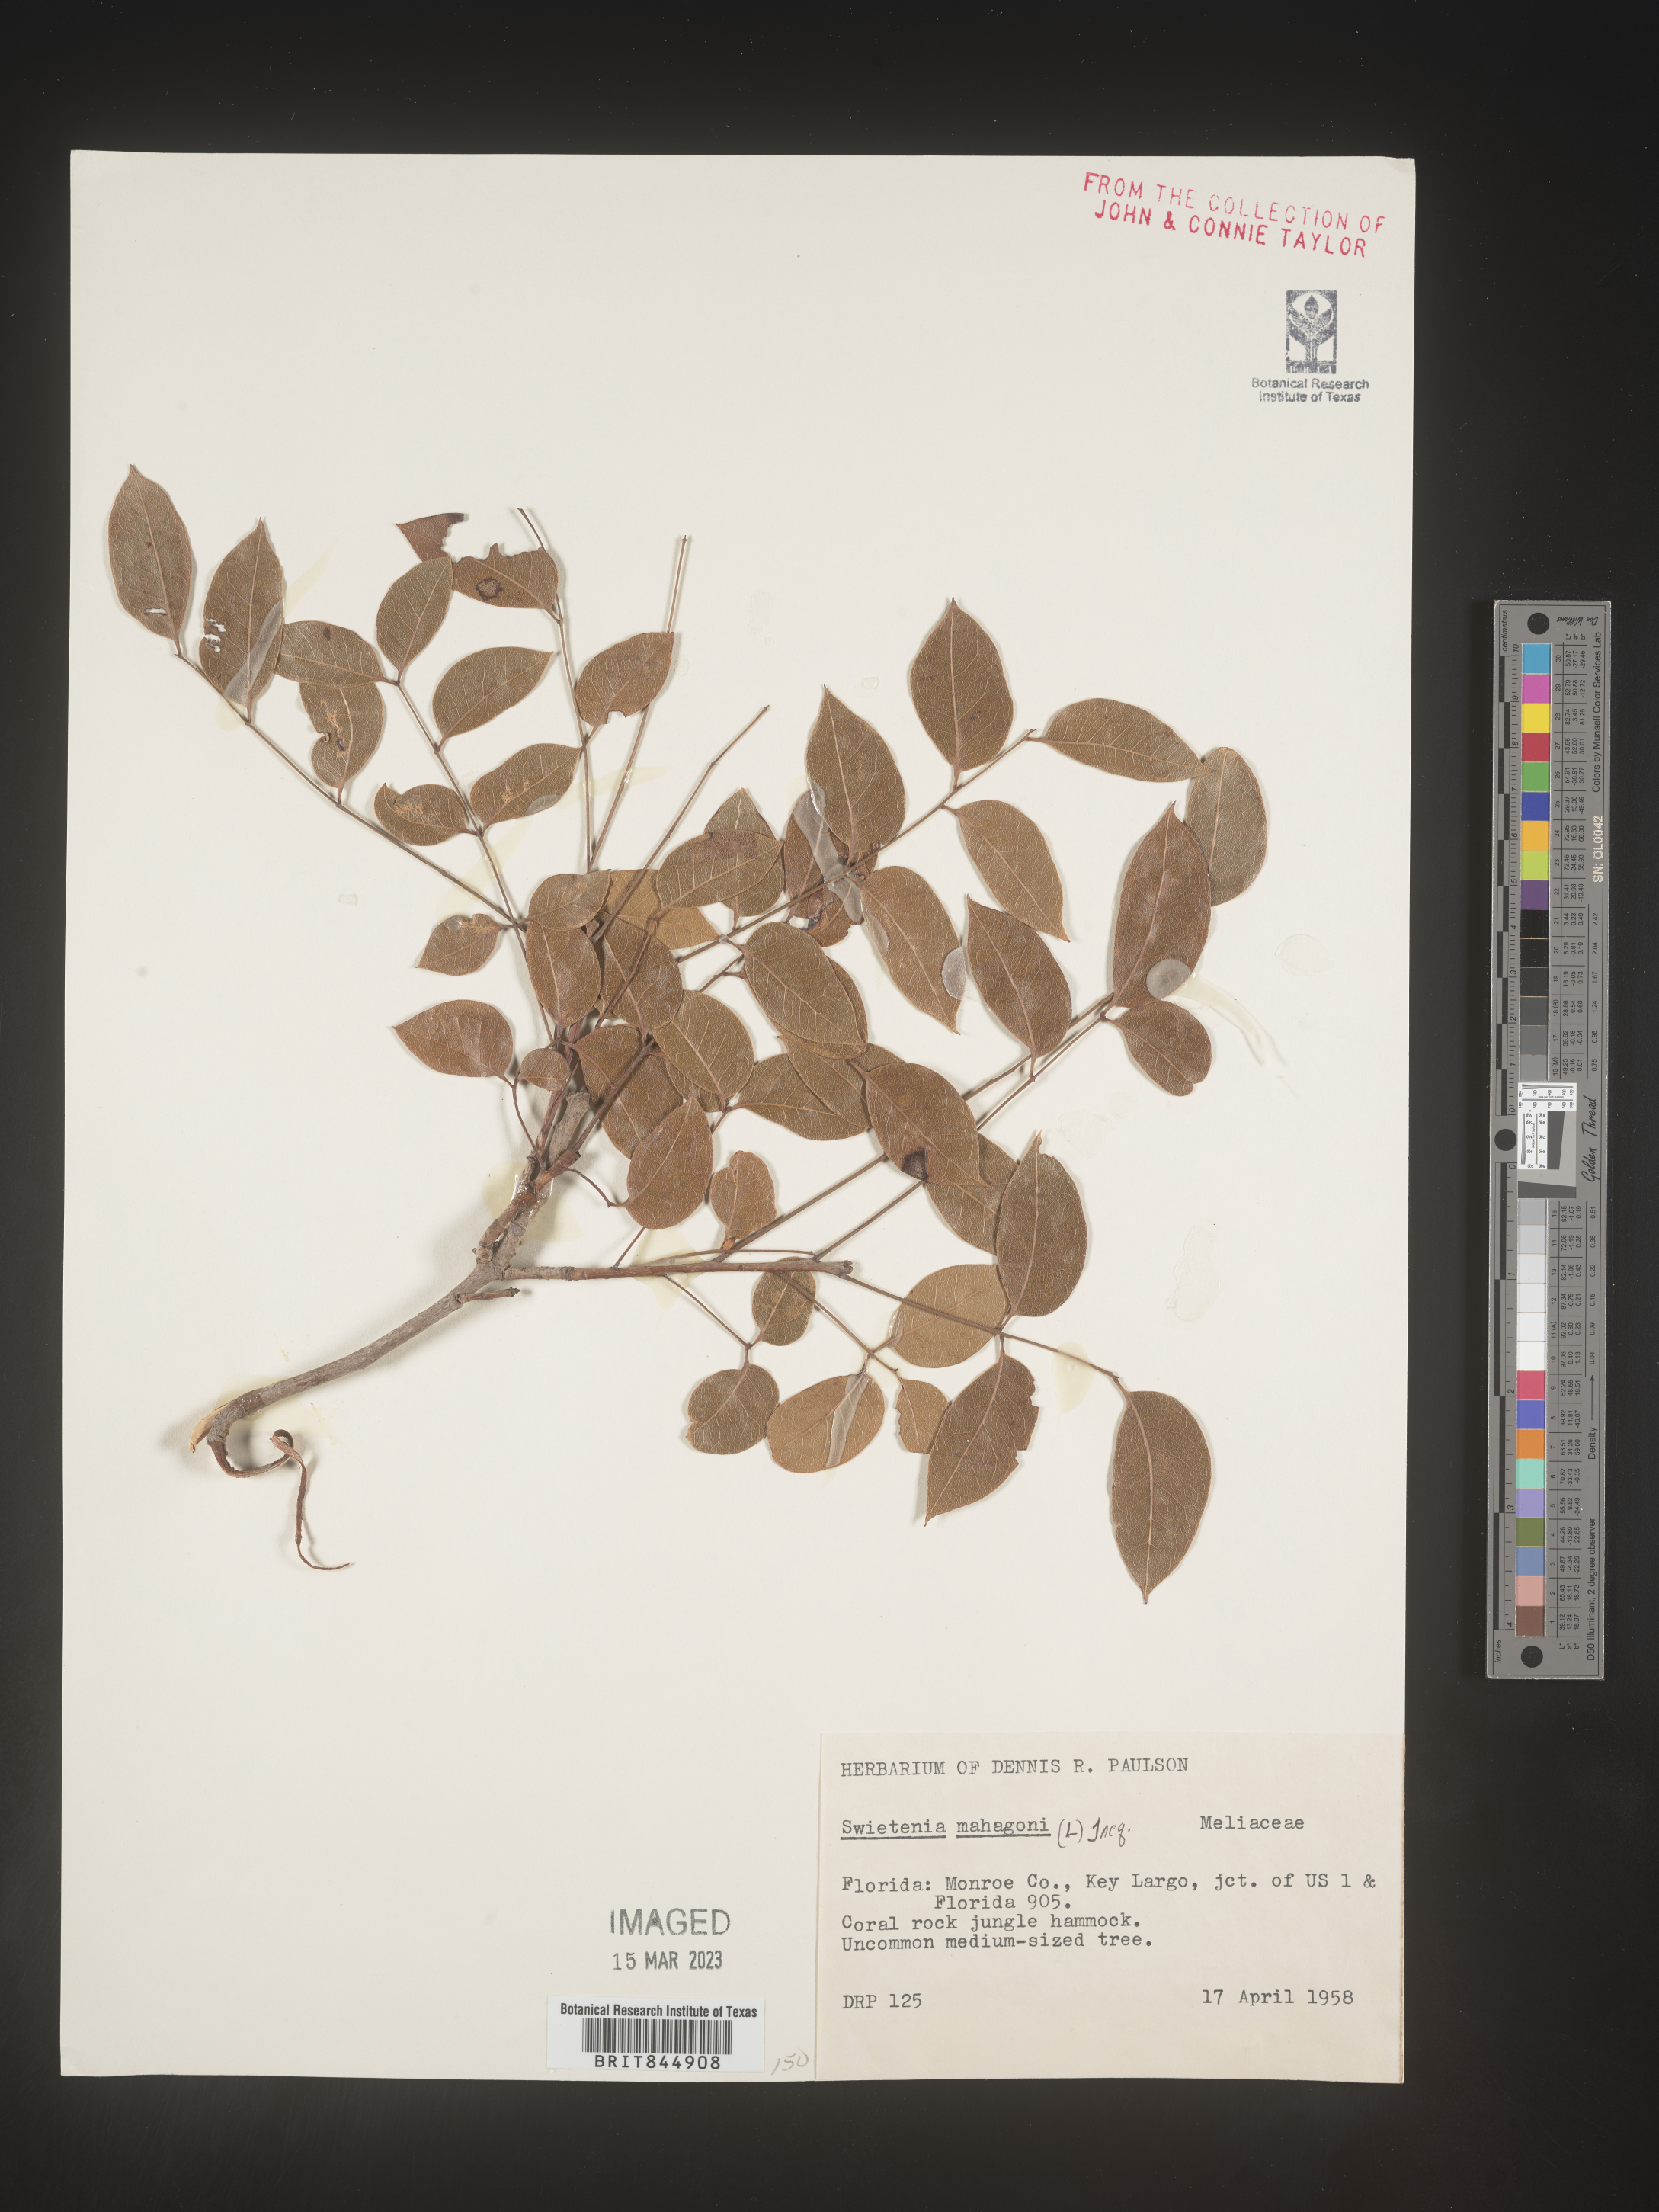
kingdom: Plantae
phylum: Tracheophyta
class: Magnoliopsida
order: Sapindales
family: Meliaceae
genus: Swietenia
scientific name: Swietenia
